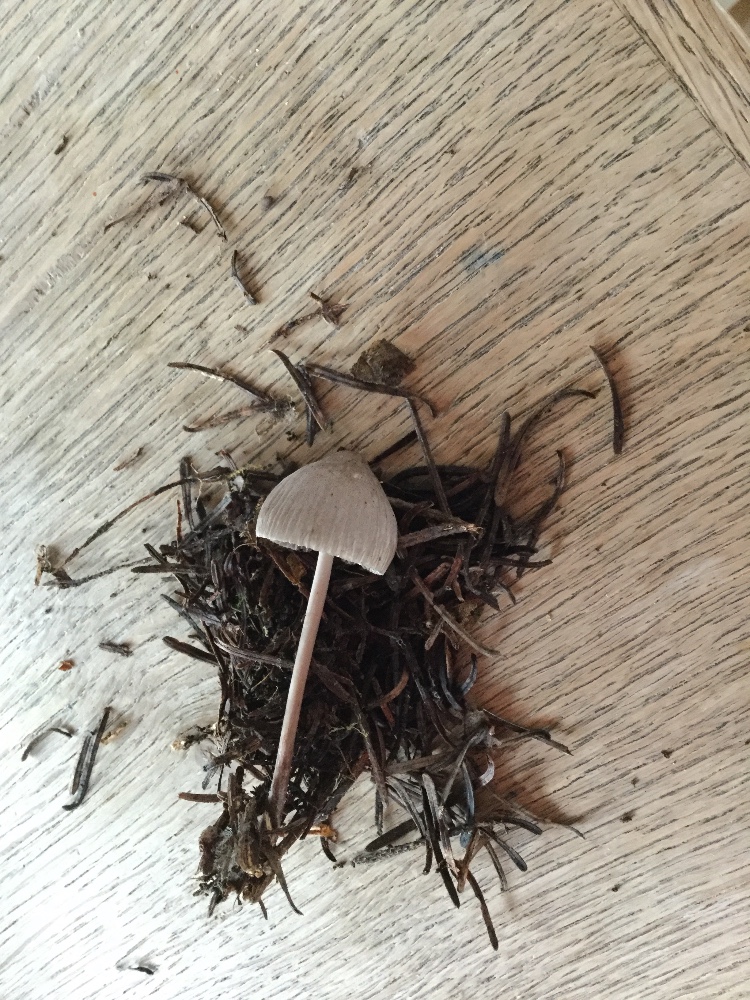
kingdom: Fungi
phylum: Basidiomycota
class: Agaricomycetes
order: Agaricales
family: Mycenaceae
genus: Mycena
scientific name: Mycena leptocephala
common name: klor-huesvamp
